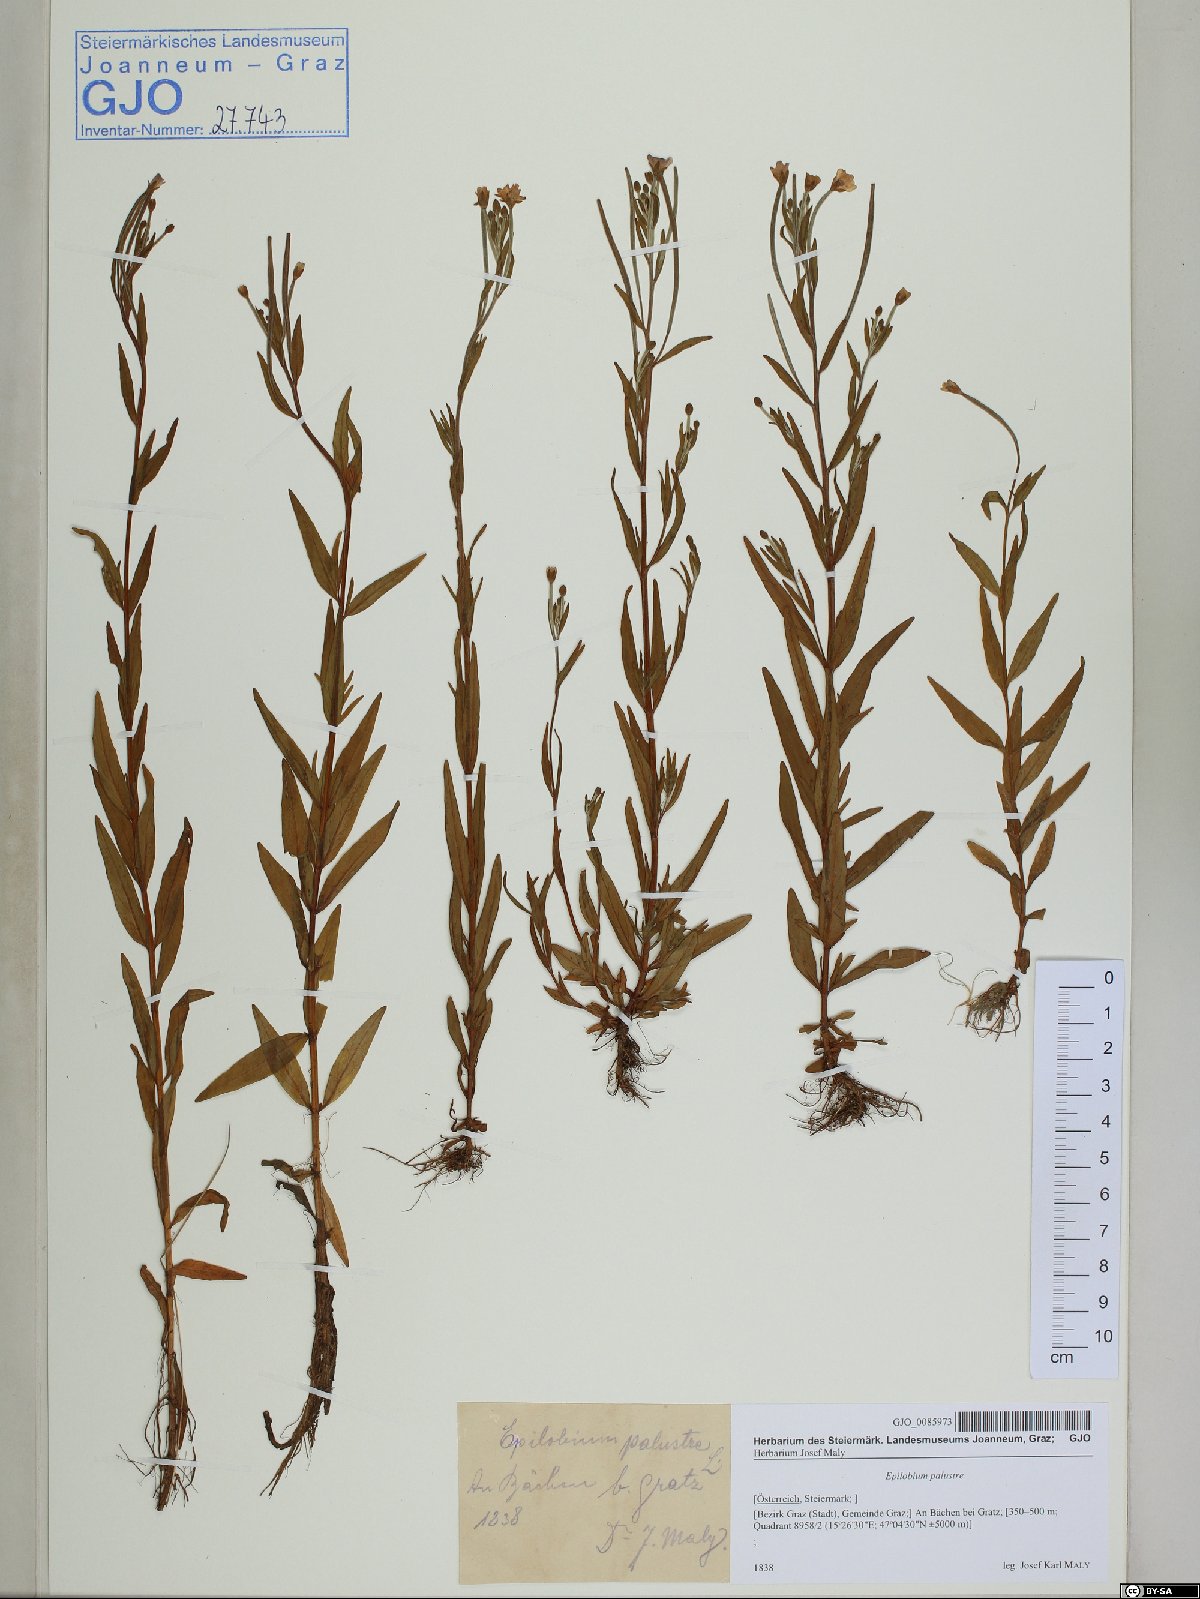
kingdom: Plantae
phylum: Tracheophyta
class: Magnoliopsida
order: Myrtales
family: Onagraceae
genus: Epilobium
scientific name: Epilobium palustre
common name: Marsh willowherb
